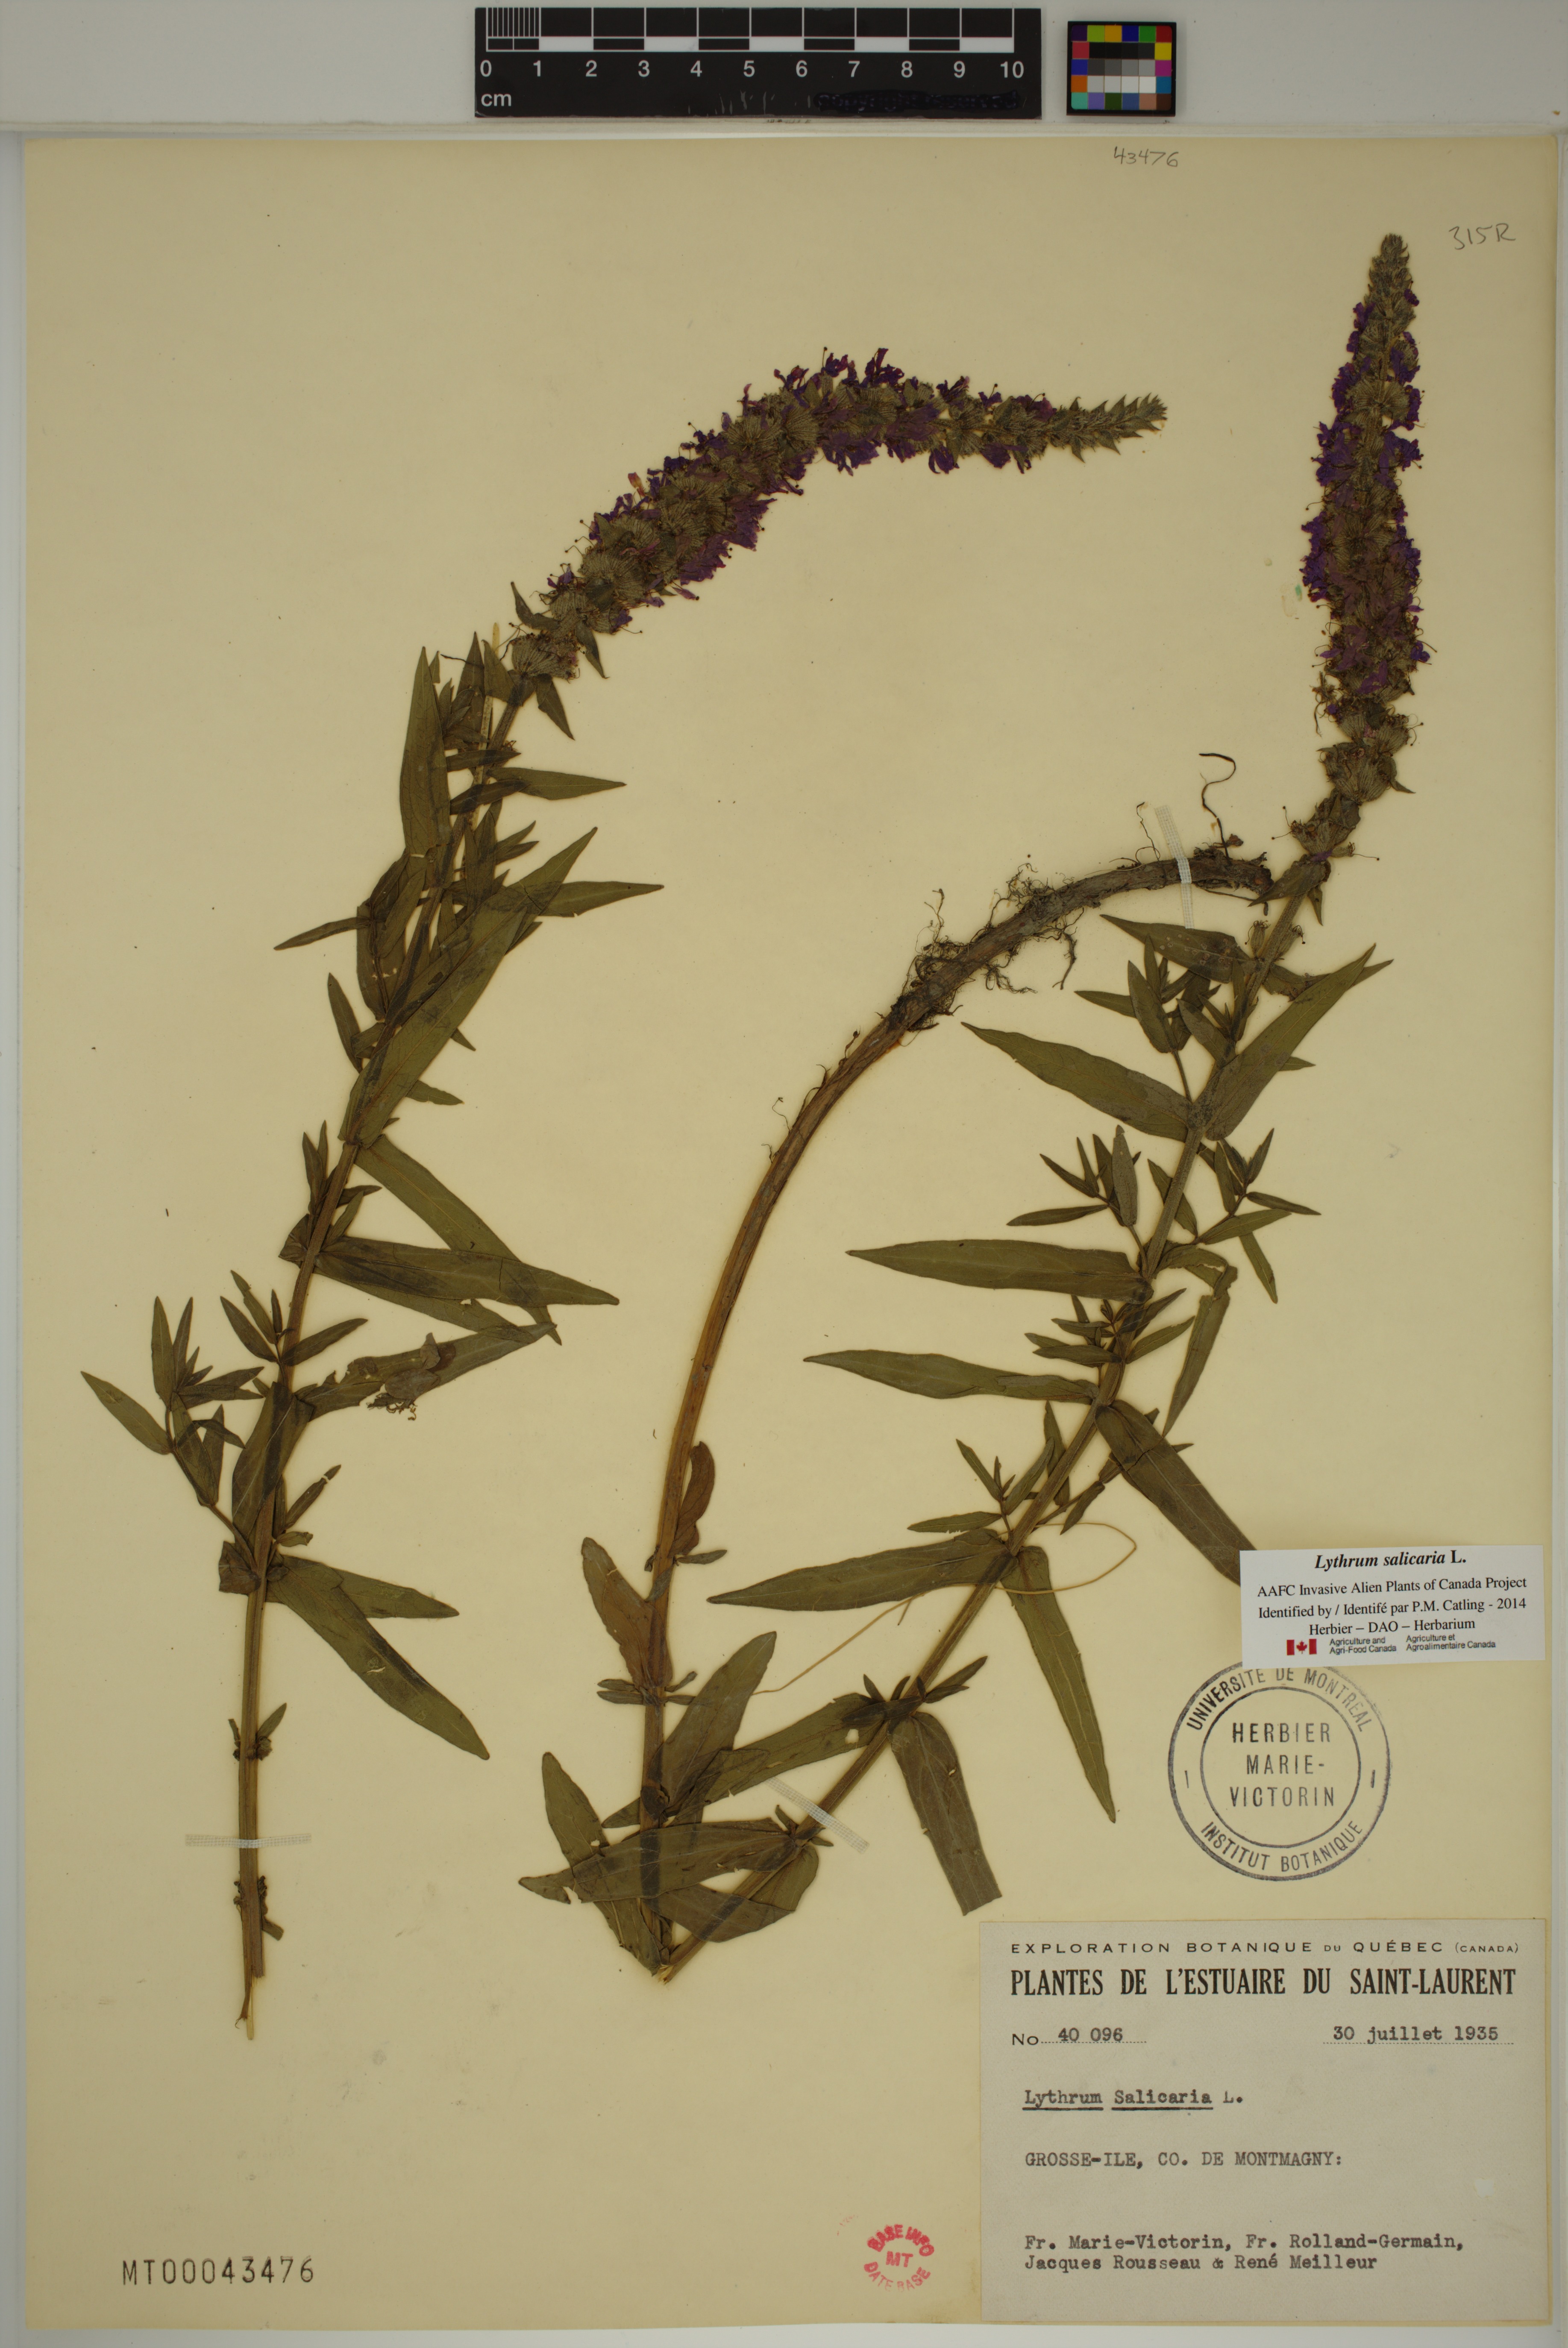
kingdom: Plantae
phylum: Tracheophyta
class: Magnoliopsida
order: Myrtales
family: Lythraceae
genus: Lythrum
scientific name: Lythrum salicaria
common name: Purple loosestrife
